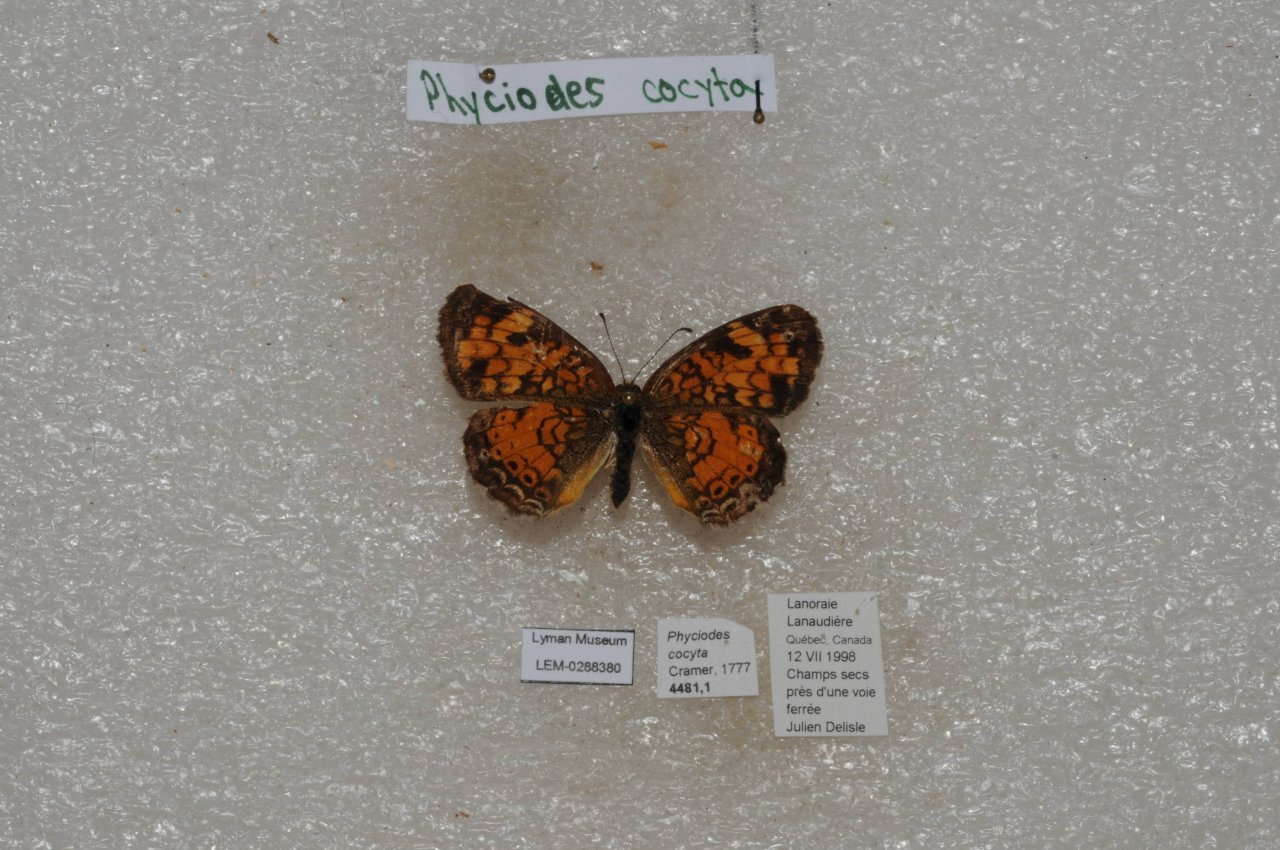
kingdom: Animalia
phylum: Arthropoda
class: Insecta
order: Lepidoptera
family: Nymphalidae
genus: Phyciodes
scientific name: Phyciodes tharos
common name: Northern Crescent
